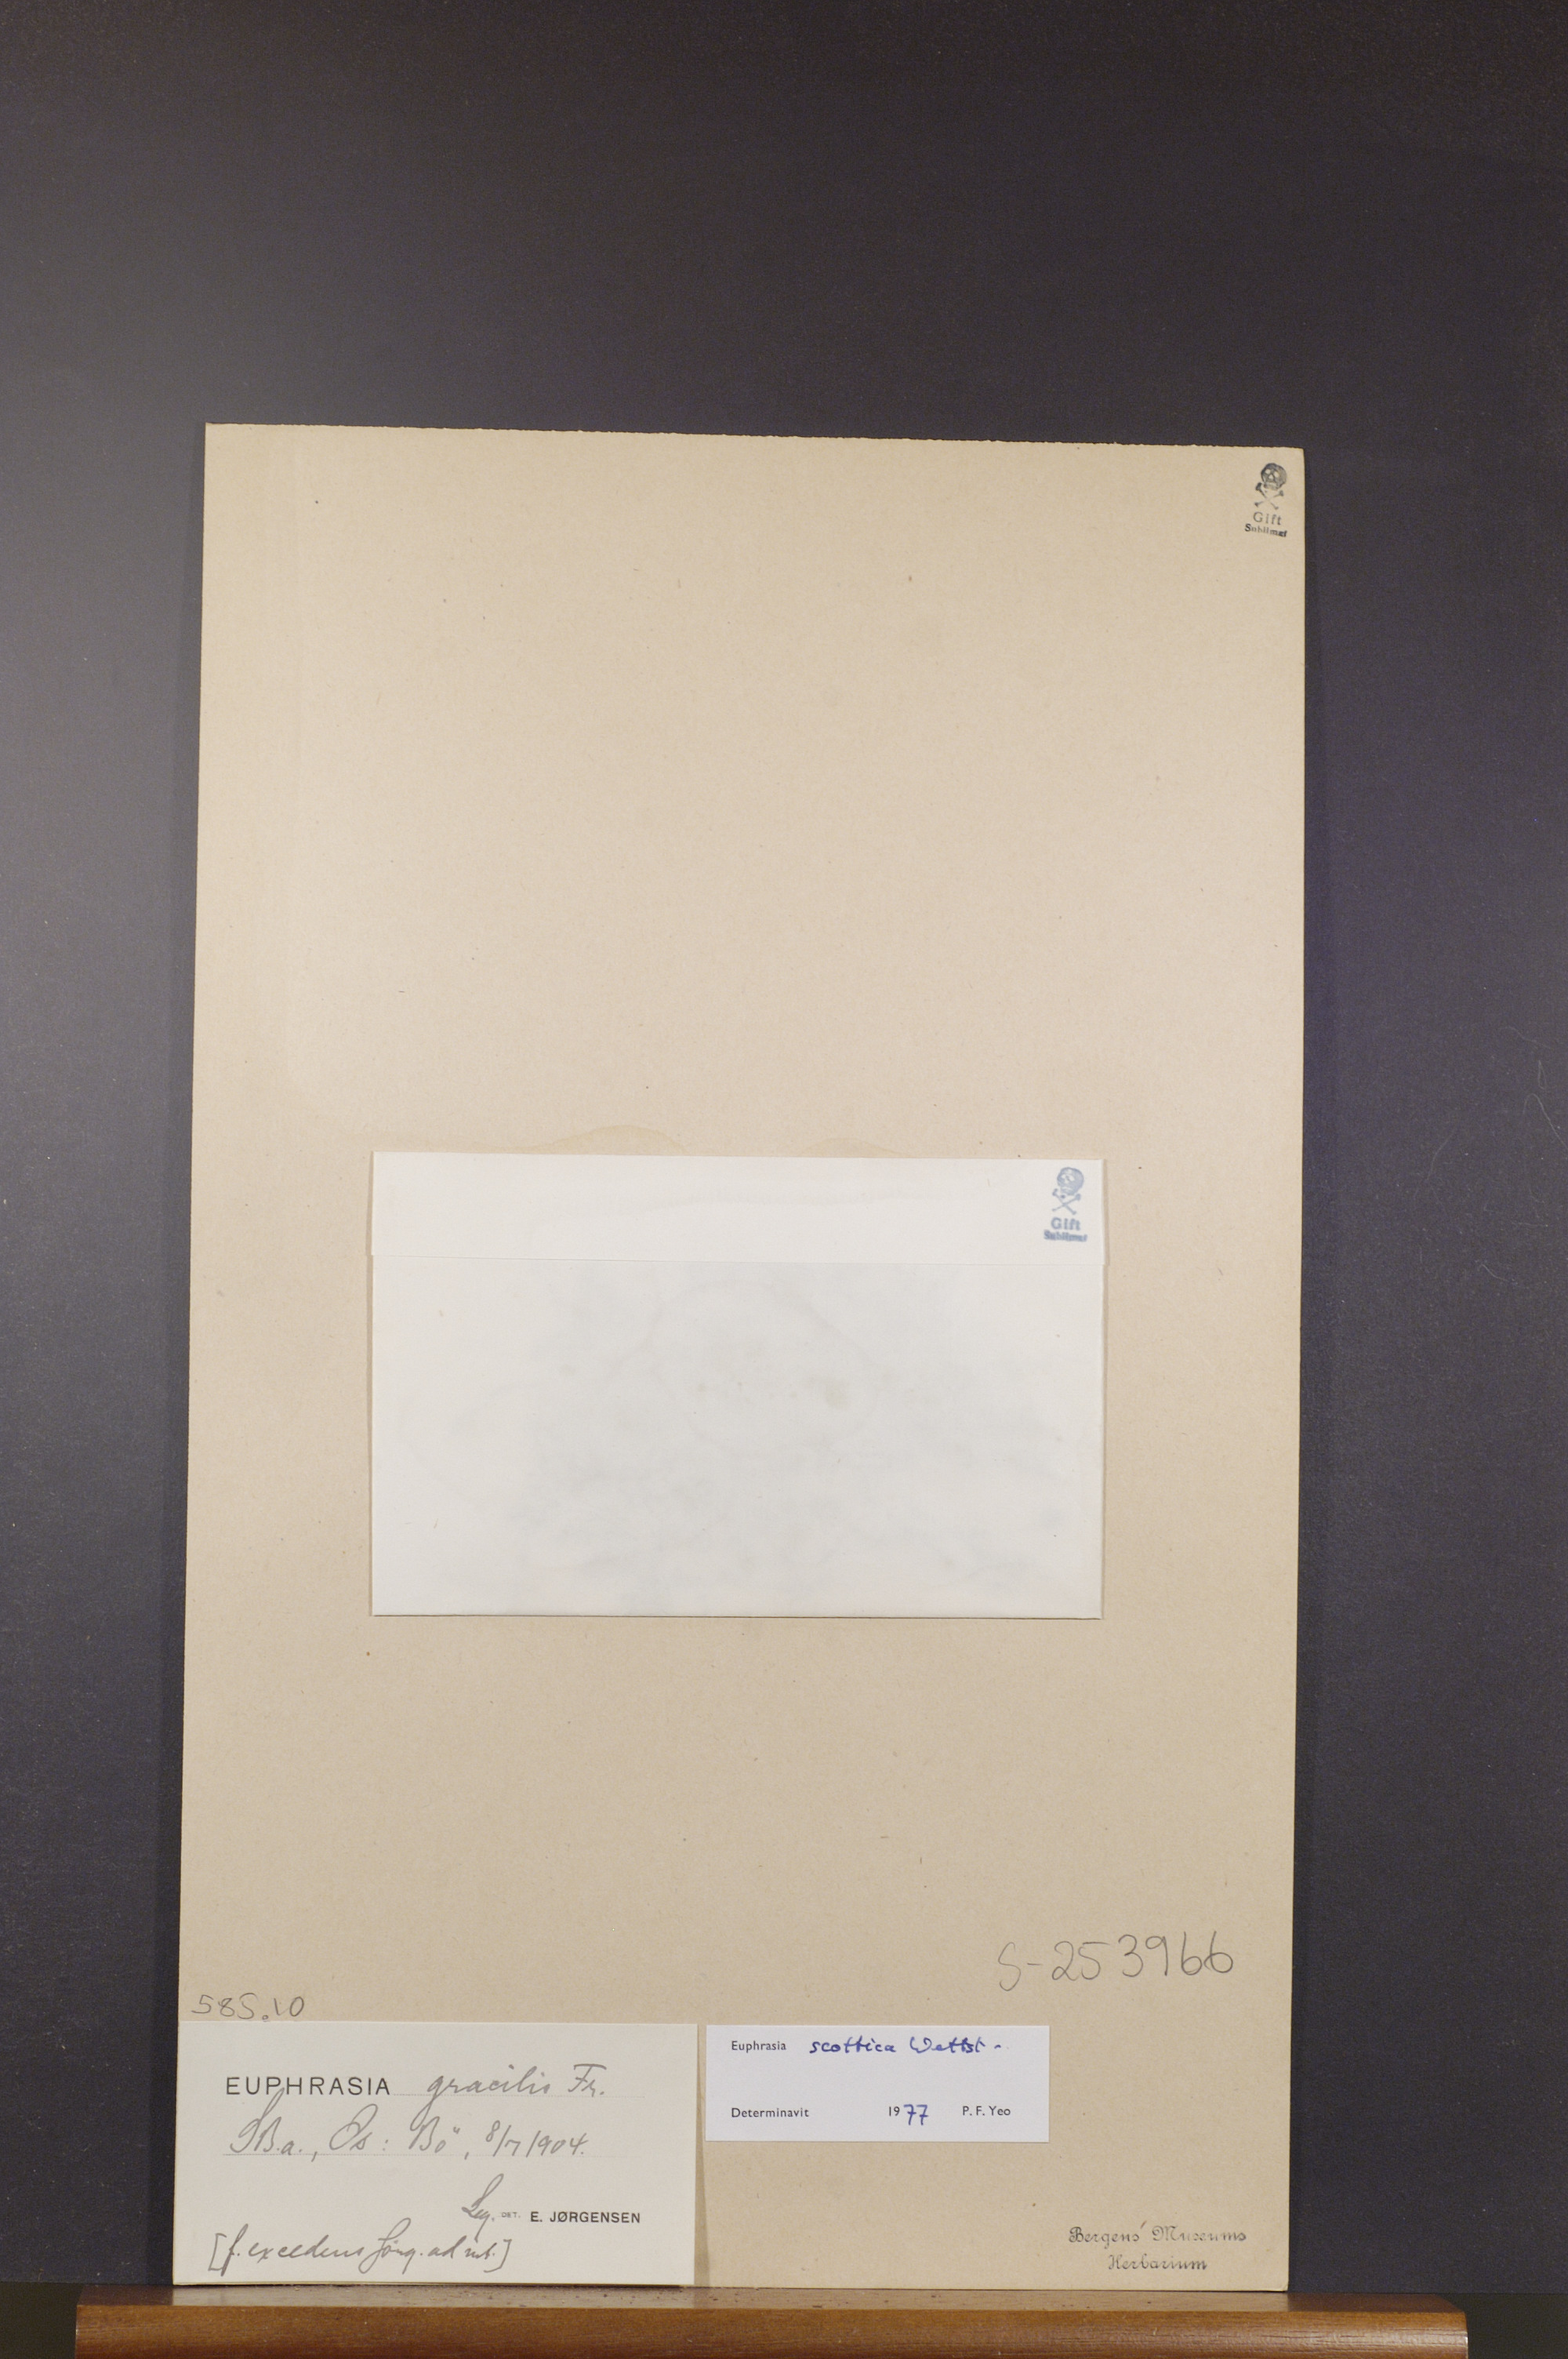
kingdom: Plantae
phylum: Tracheophyta
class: Magnoliopsida
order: Lamiales
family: Orobanchaceae
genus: Euphrasia
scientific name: Euphrasia scottica
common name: Slender scottish eyebright
